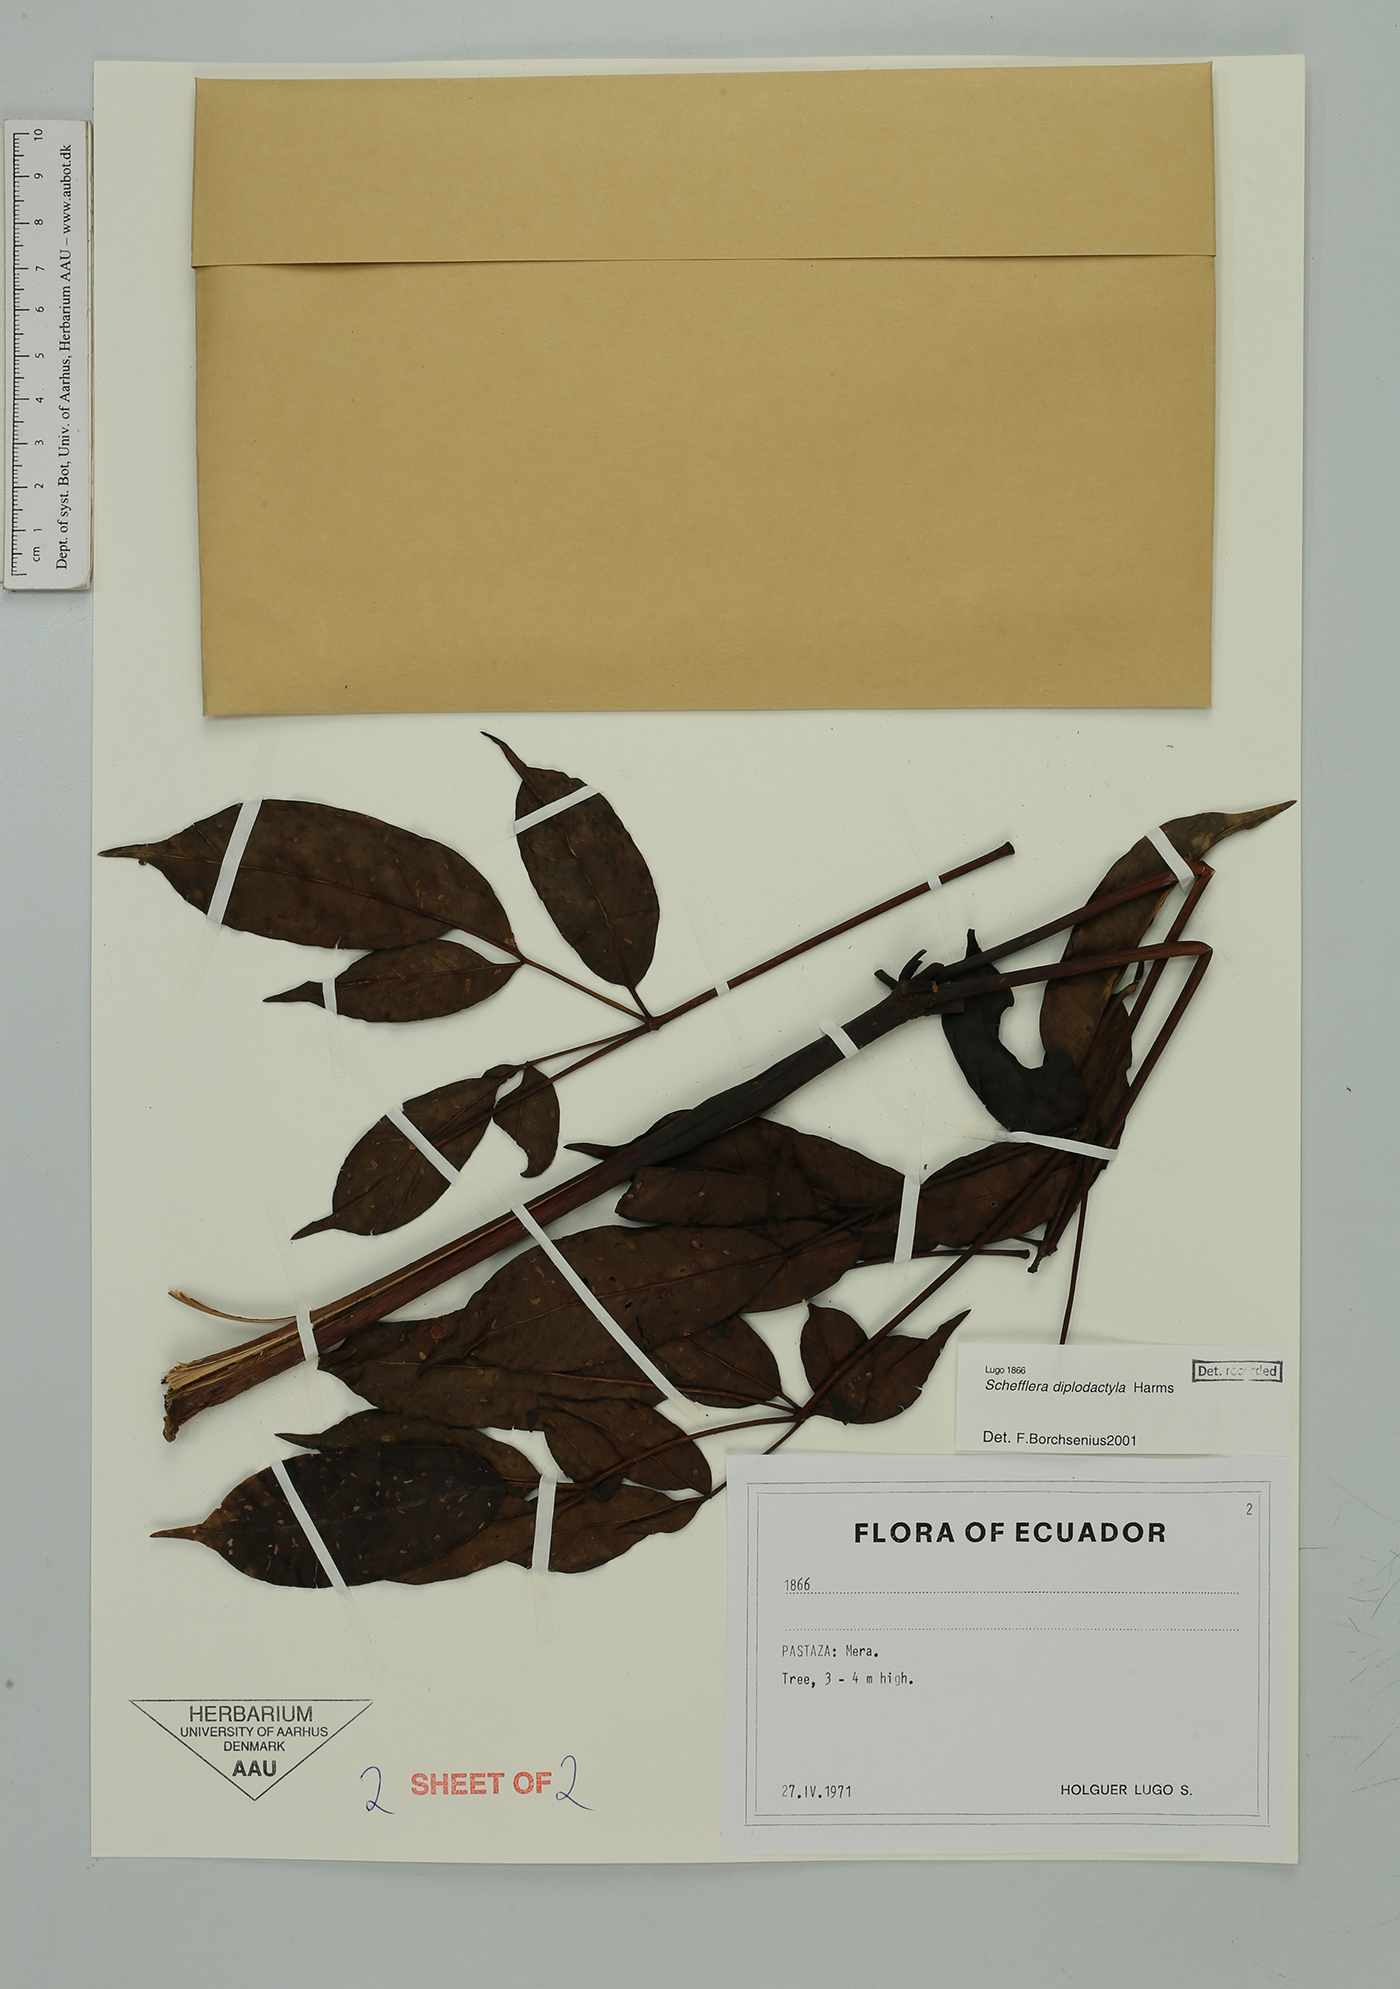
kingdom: Plantae
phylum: Tracheophyta
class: Magnoliopsida
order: Apiales
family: Araliaceae
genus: Sciodaphyllum
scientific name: Sciodaphyllum diplodactylum
